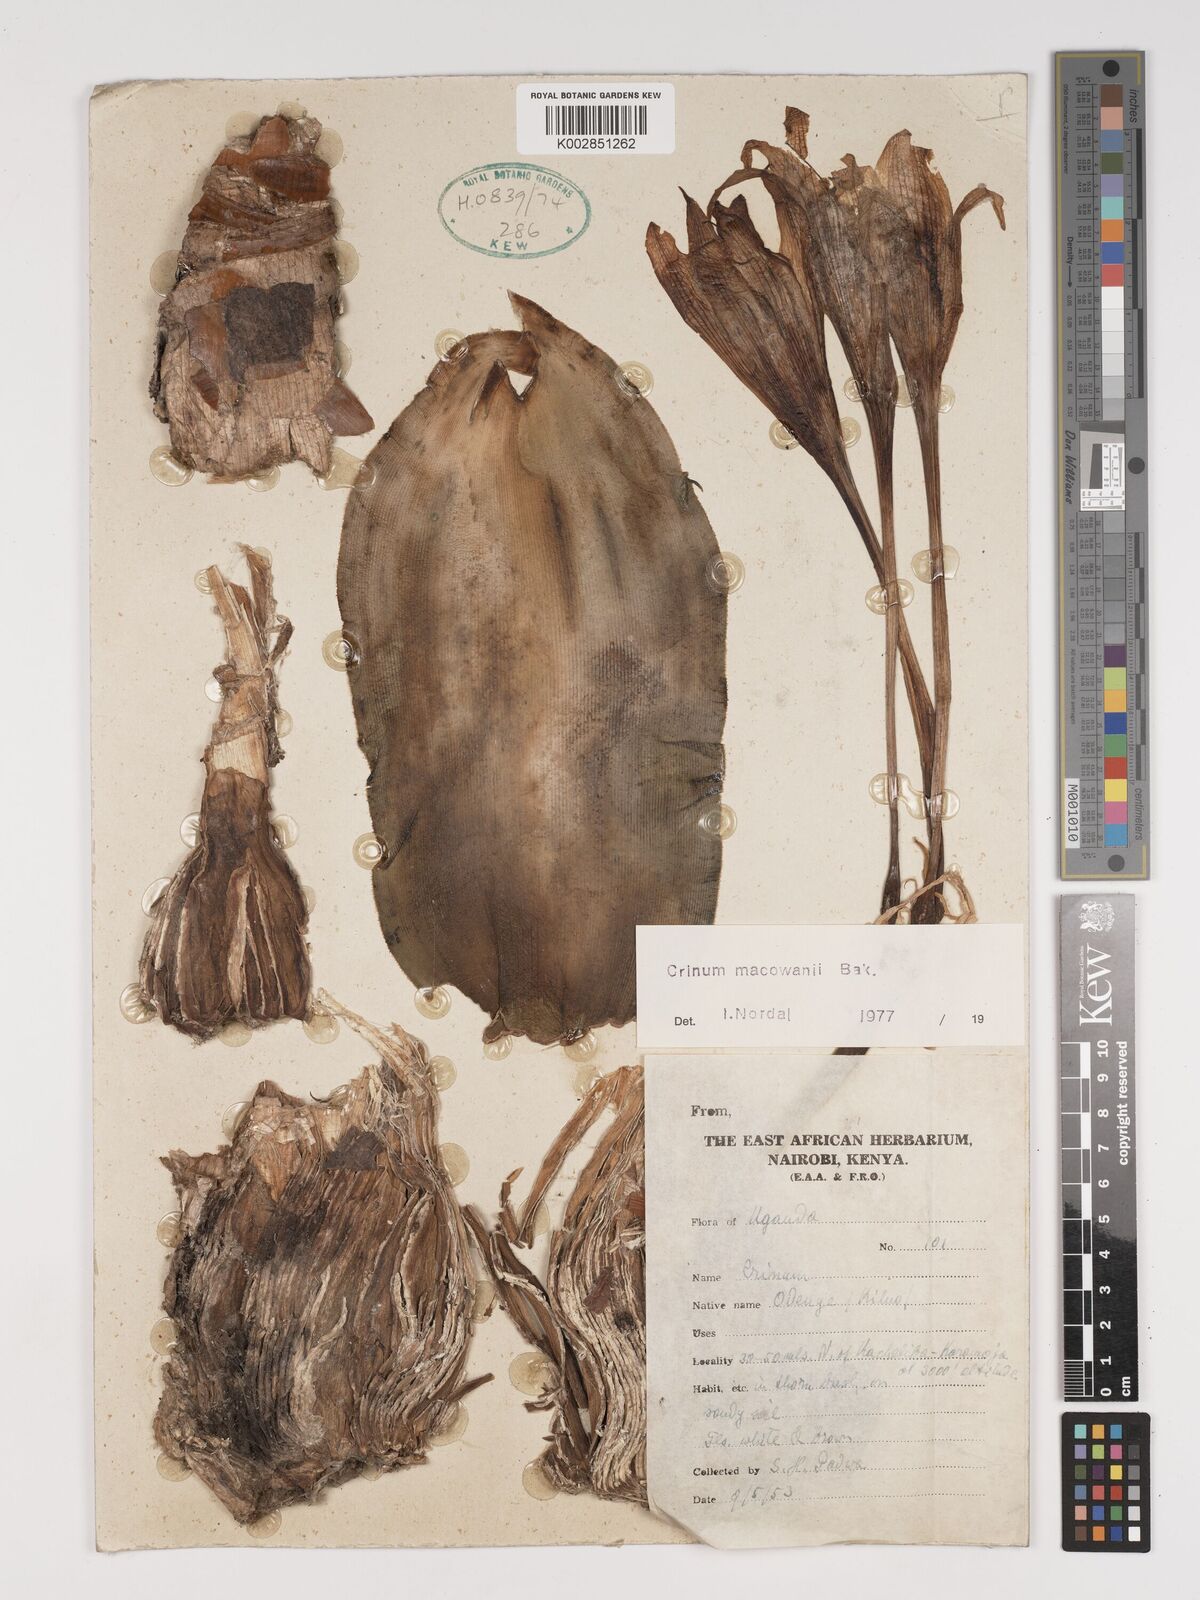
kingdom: Plantae
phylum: Tracheophyta
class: Liliopsida
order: Asparagales
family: Amaryllidaceae
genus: Crinum
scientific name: Crinum macowanii
